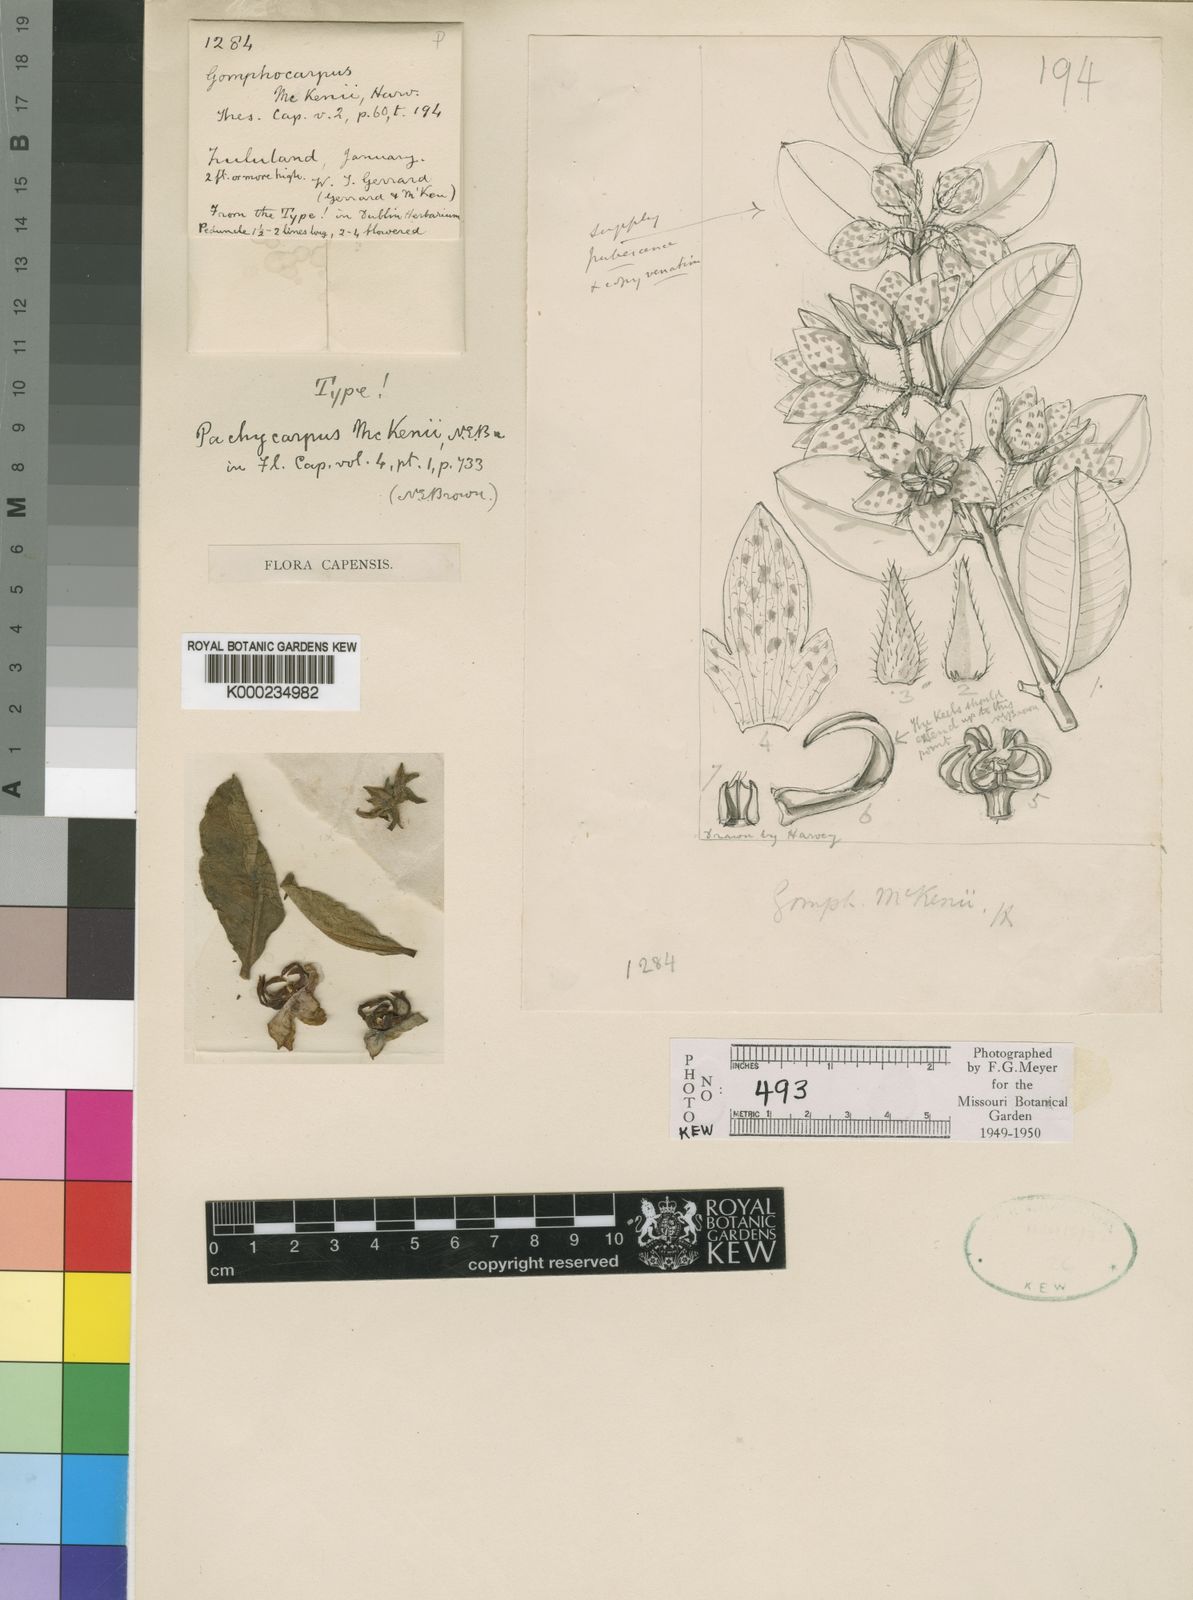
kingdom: Plantae
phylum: Tracheophyta
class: Magnoliopsida
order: Gentianales
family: Apocynaceae
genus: Pachycarpus
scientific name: Pachycarpus mackenii
